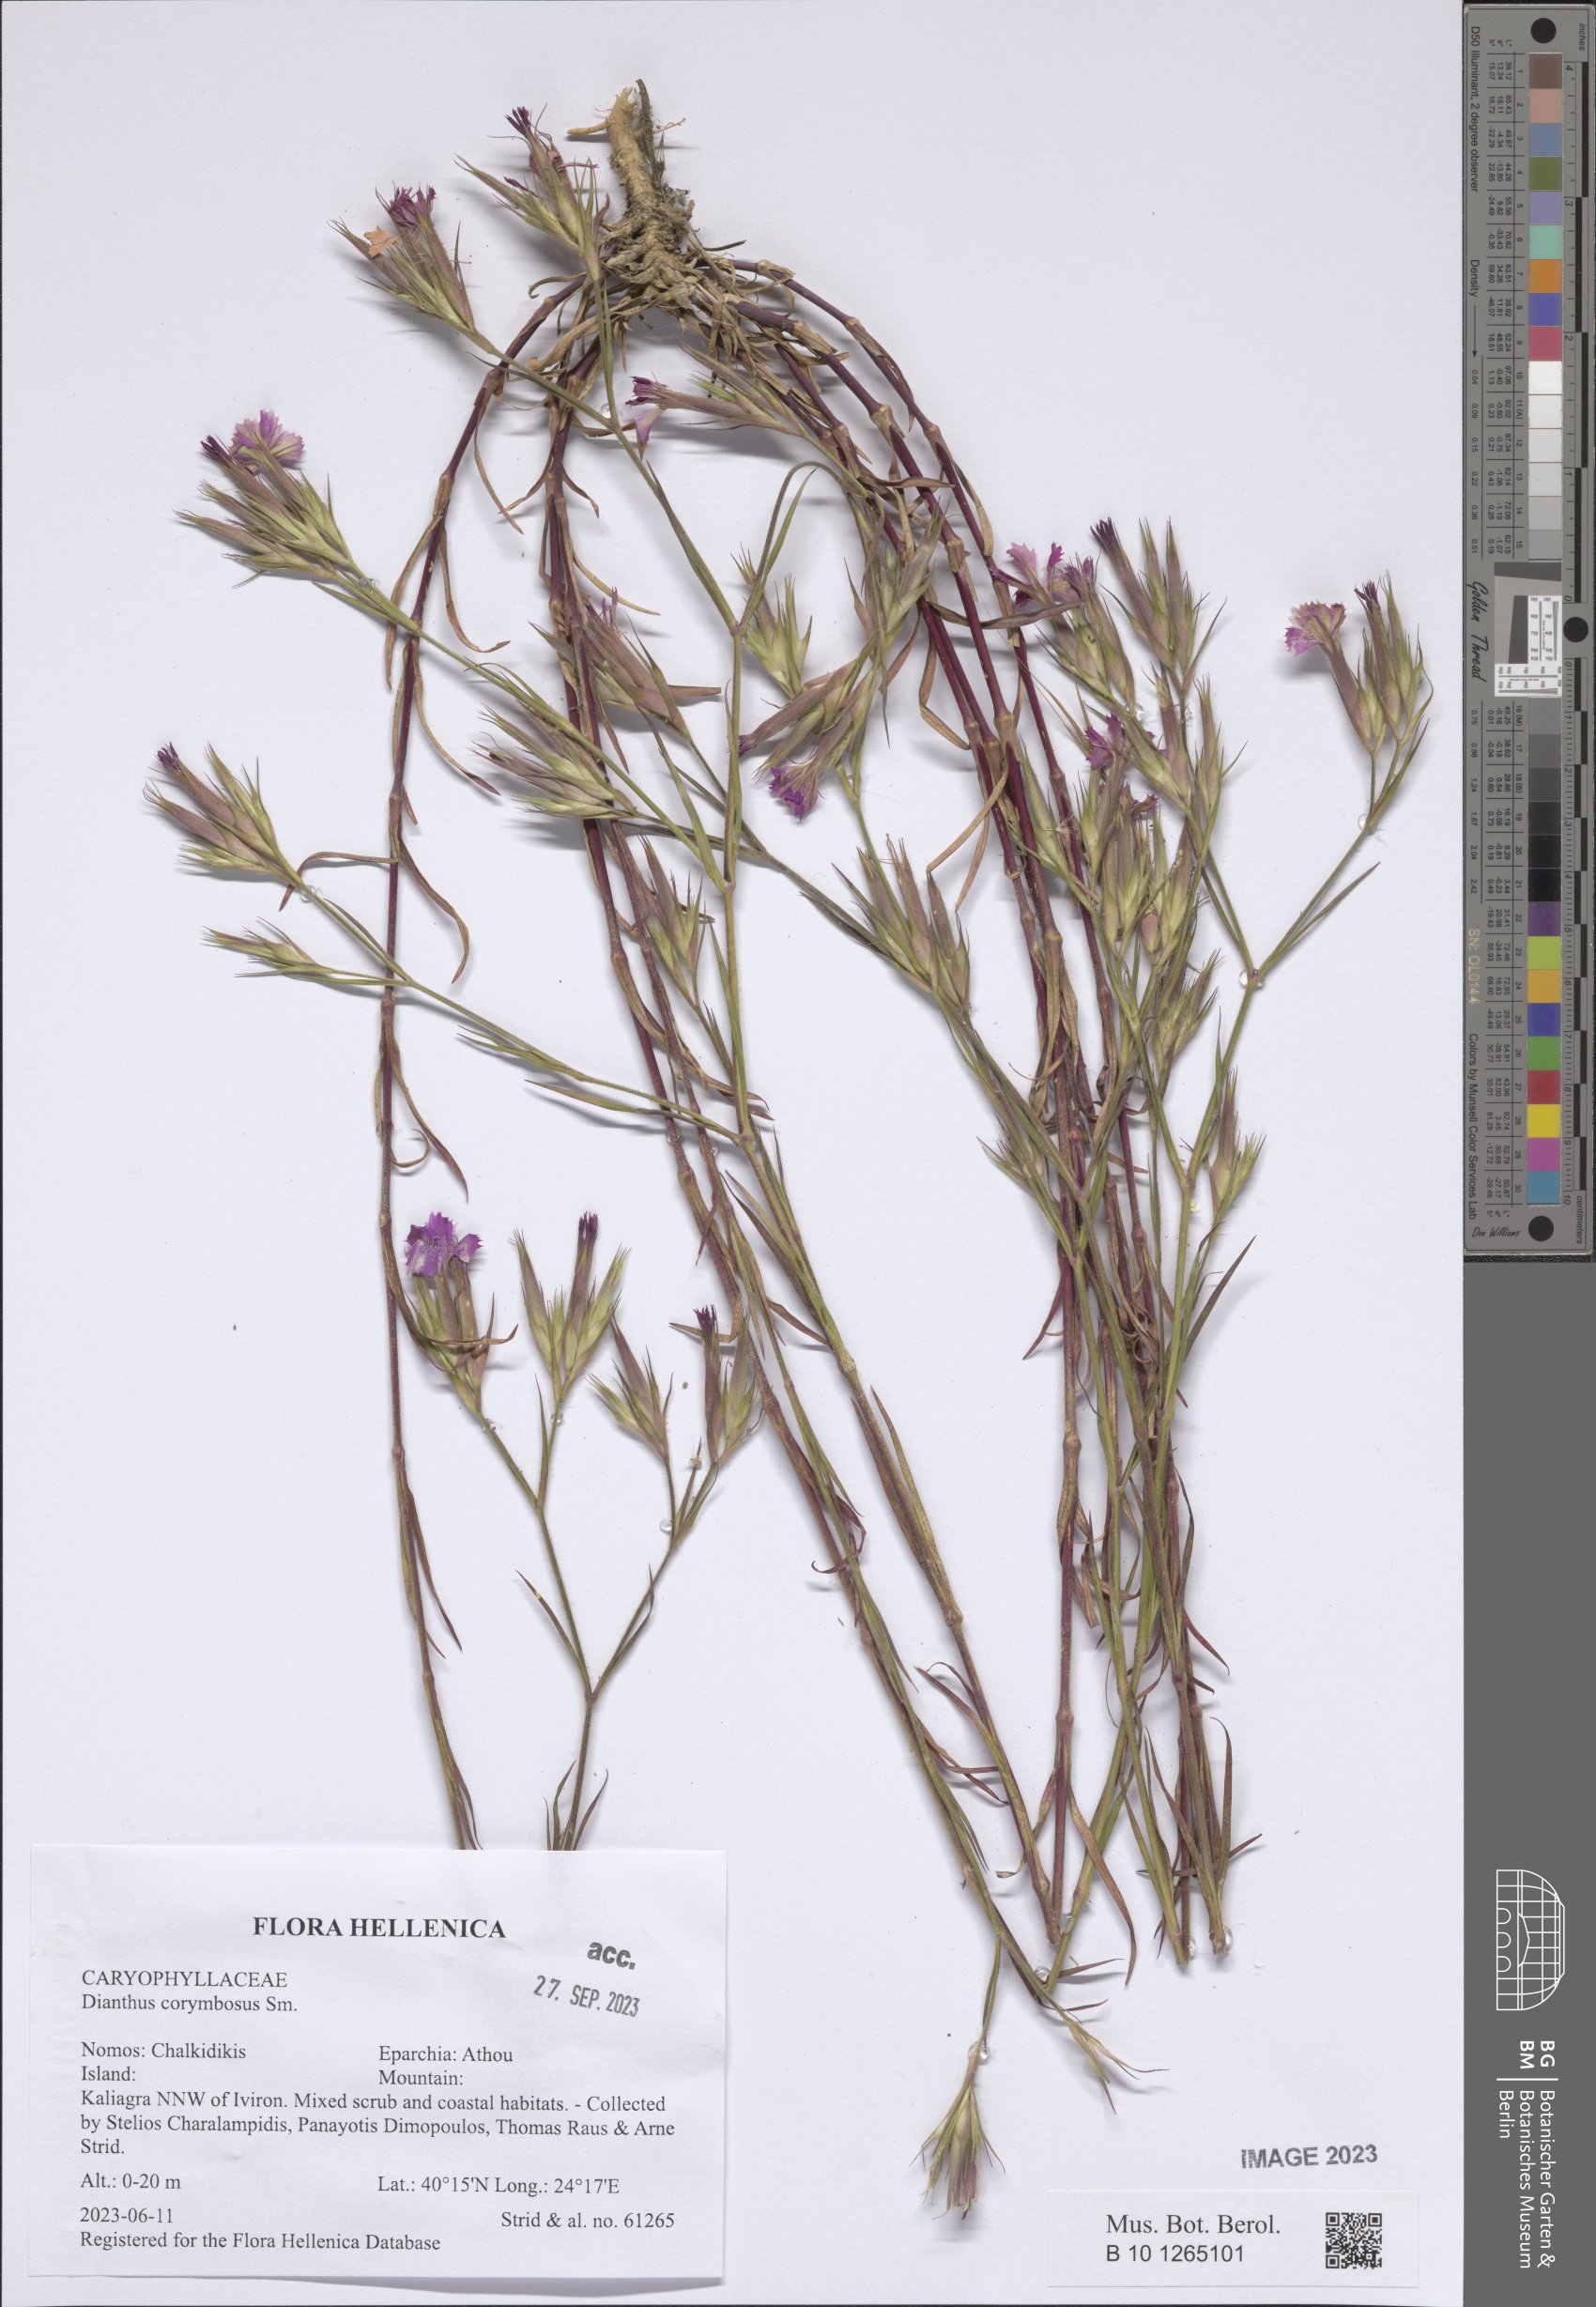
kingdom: Plantae
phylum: Tracheophyta
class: Magnoliopsida
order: Caryophyllales
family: Caryophyllaceae
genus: Dianthus
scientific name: Dianthus corymbosus
